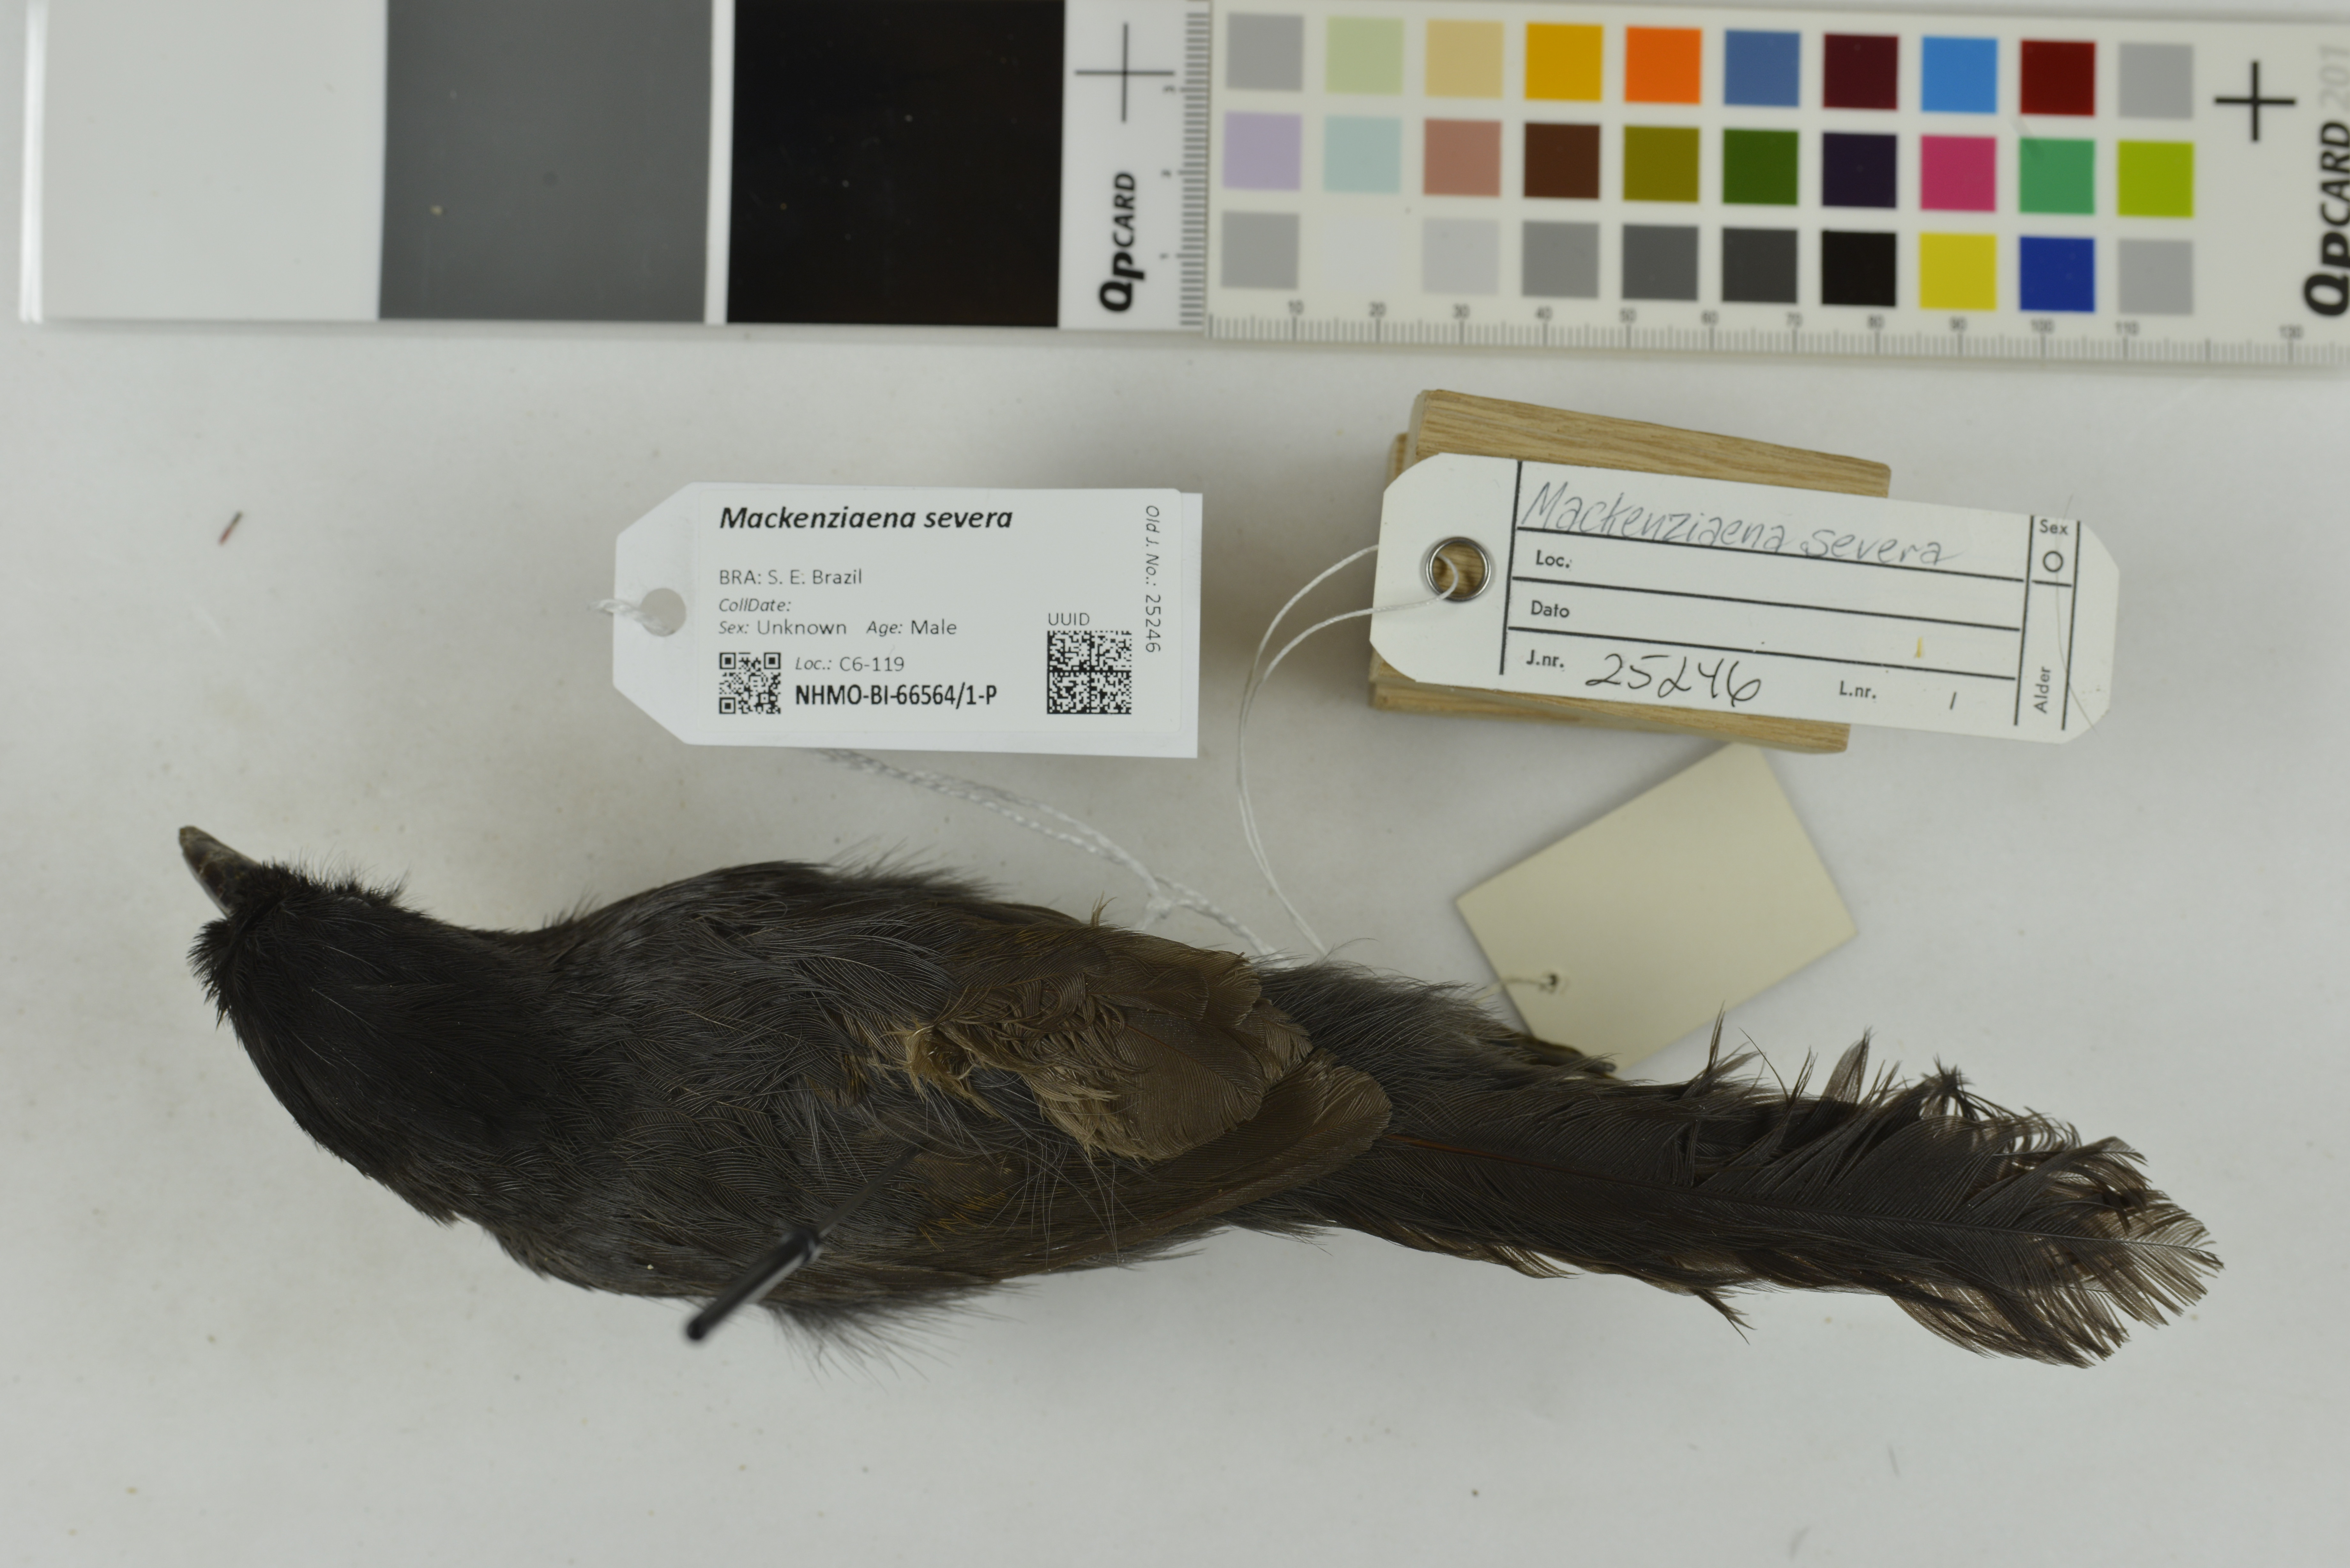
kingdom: Animalia
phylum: Chordata
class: Aves
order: Passeriformes
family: Thamnophilidae
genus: Mackenziaena
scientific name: Mackenziaena severa
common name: Tufted antshrike
